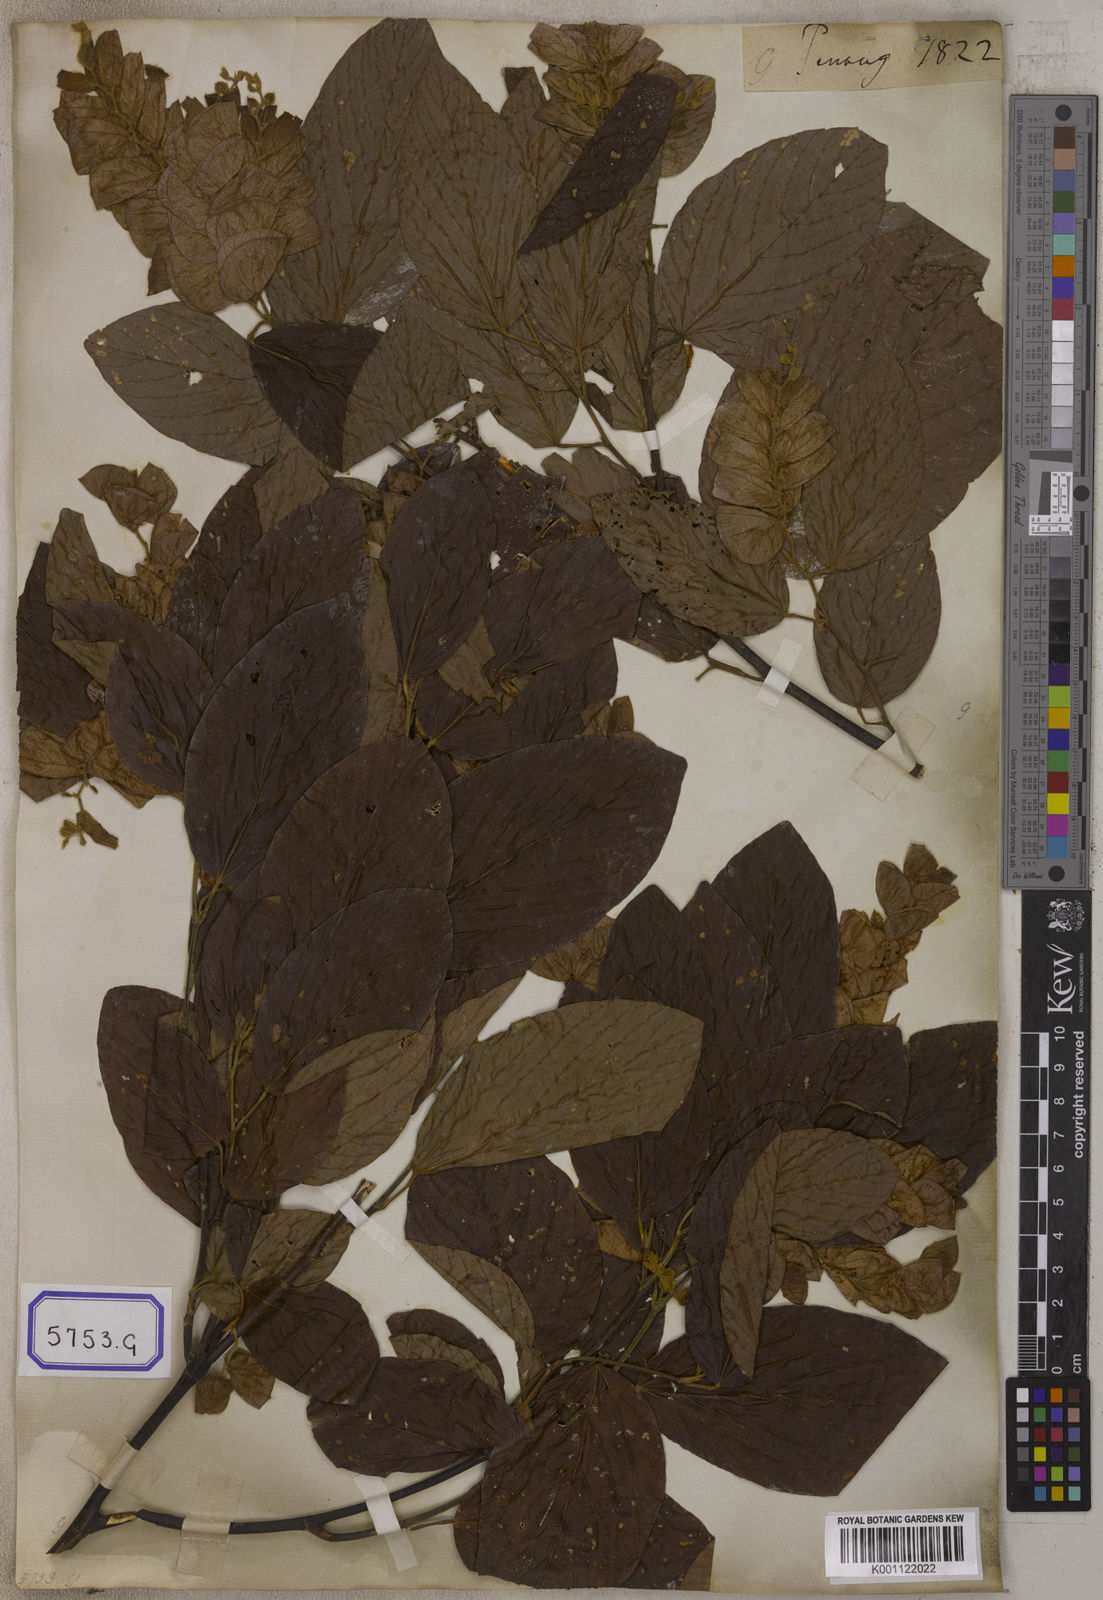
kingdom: Plantae
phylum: Tracheophyta
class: Magnoliopsida
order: Fabales
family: Fabaceae
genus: Flemingia
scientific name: Flemingia strobilifera
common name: Wild hops
